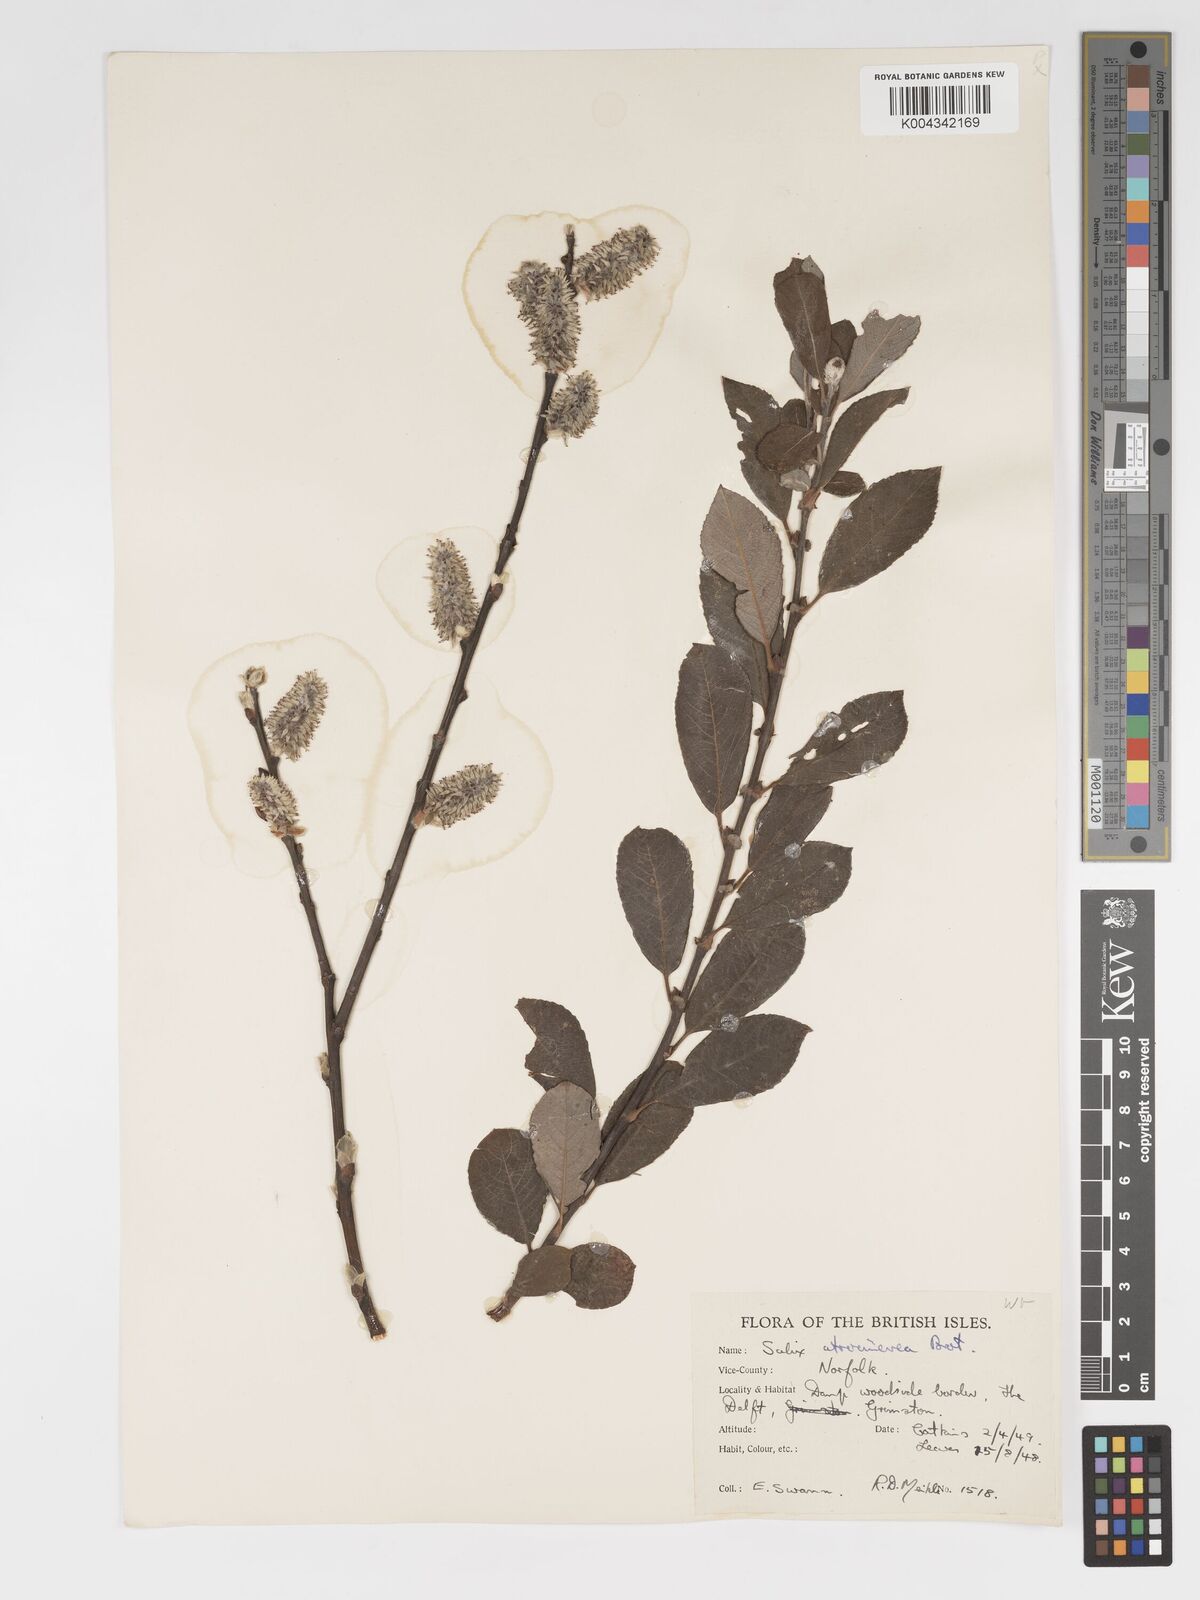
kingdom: Plantae
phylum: Tracheophyta
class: Magnoliopsida
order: Malpighiales
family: Salicaceae
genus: Salix
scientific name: Salix
